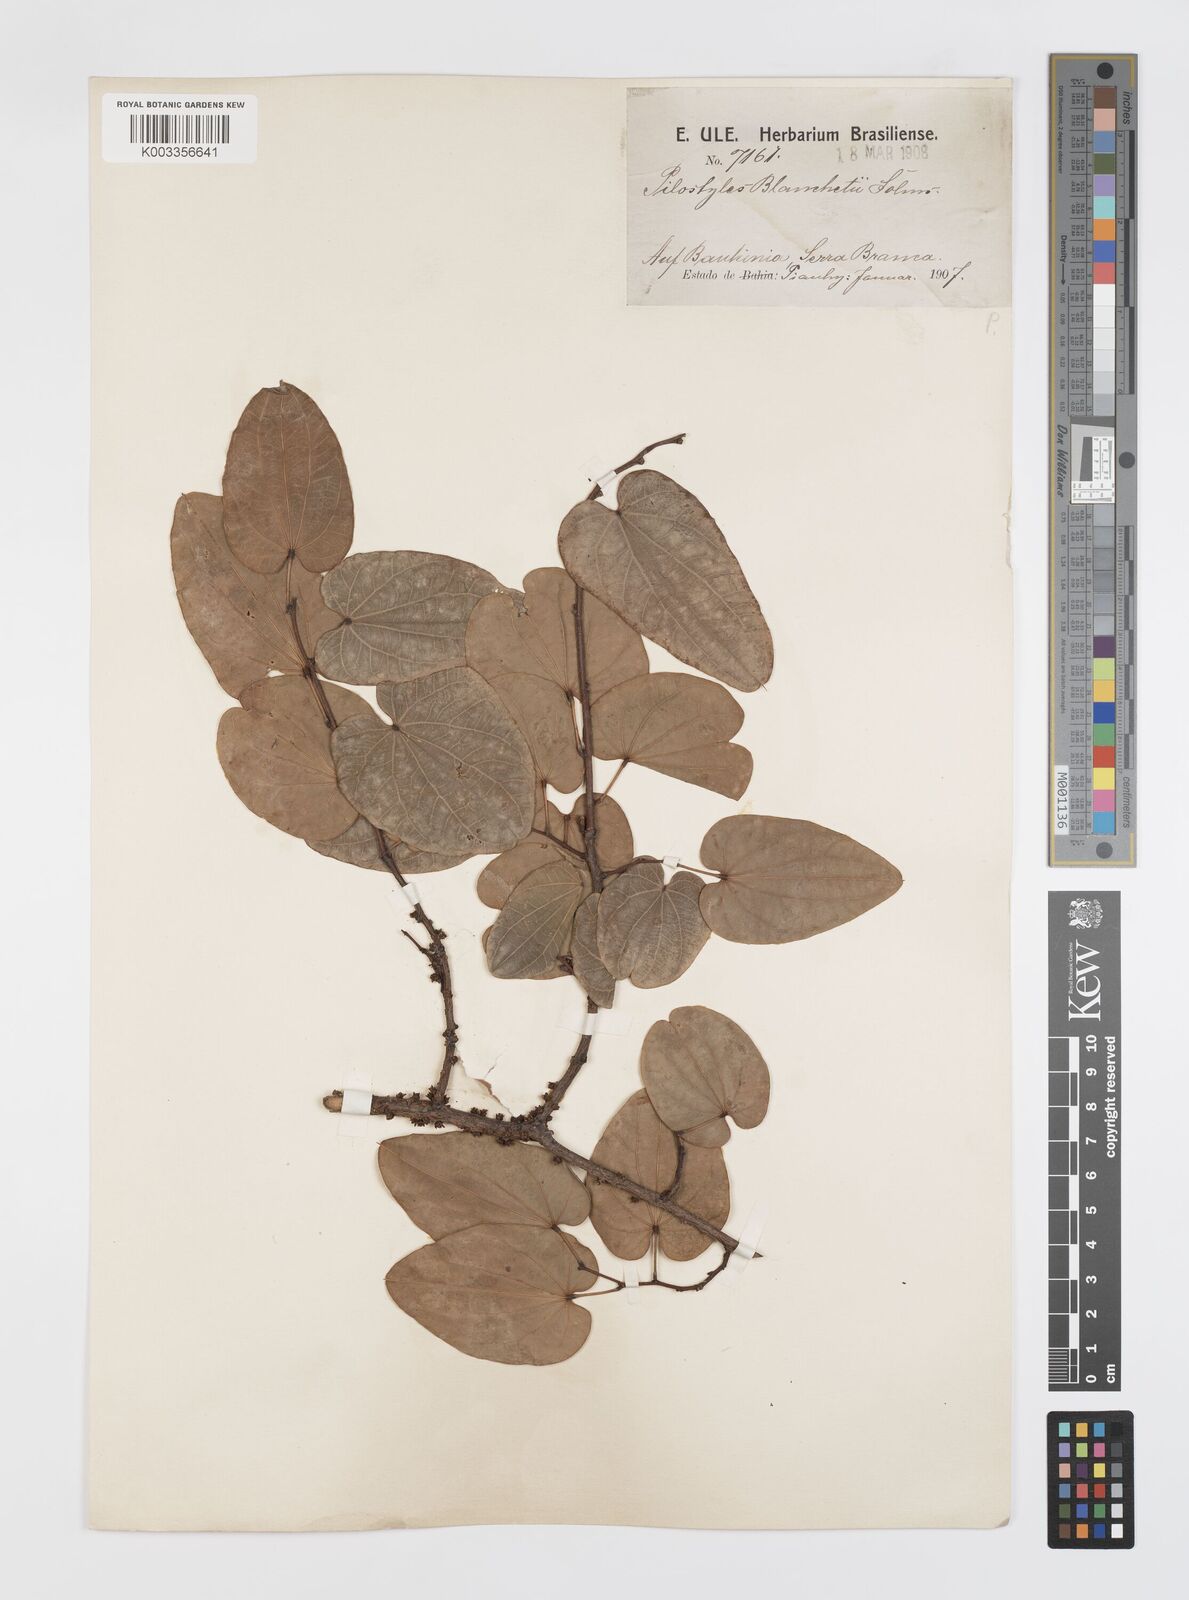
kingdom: Plantae
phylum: Tracheophyta
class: Magnoliopsida
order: Cucurbitales
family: Apodanthaceae
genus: Pilostyles
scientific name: Pilostyles blanchetii
